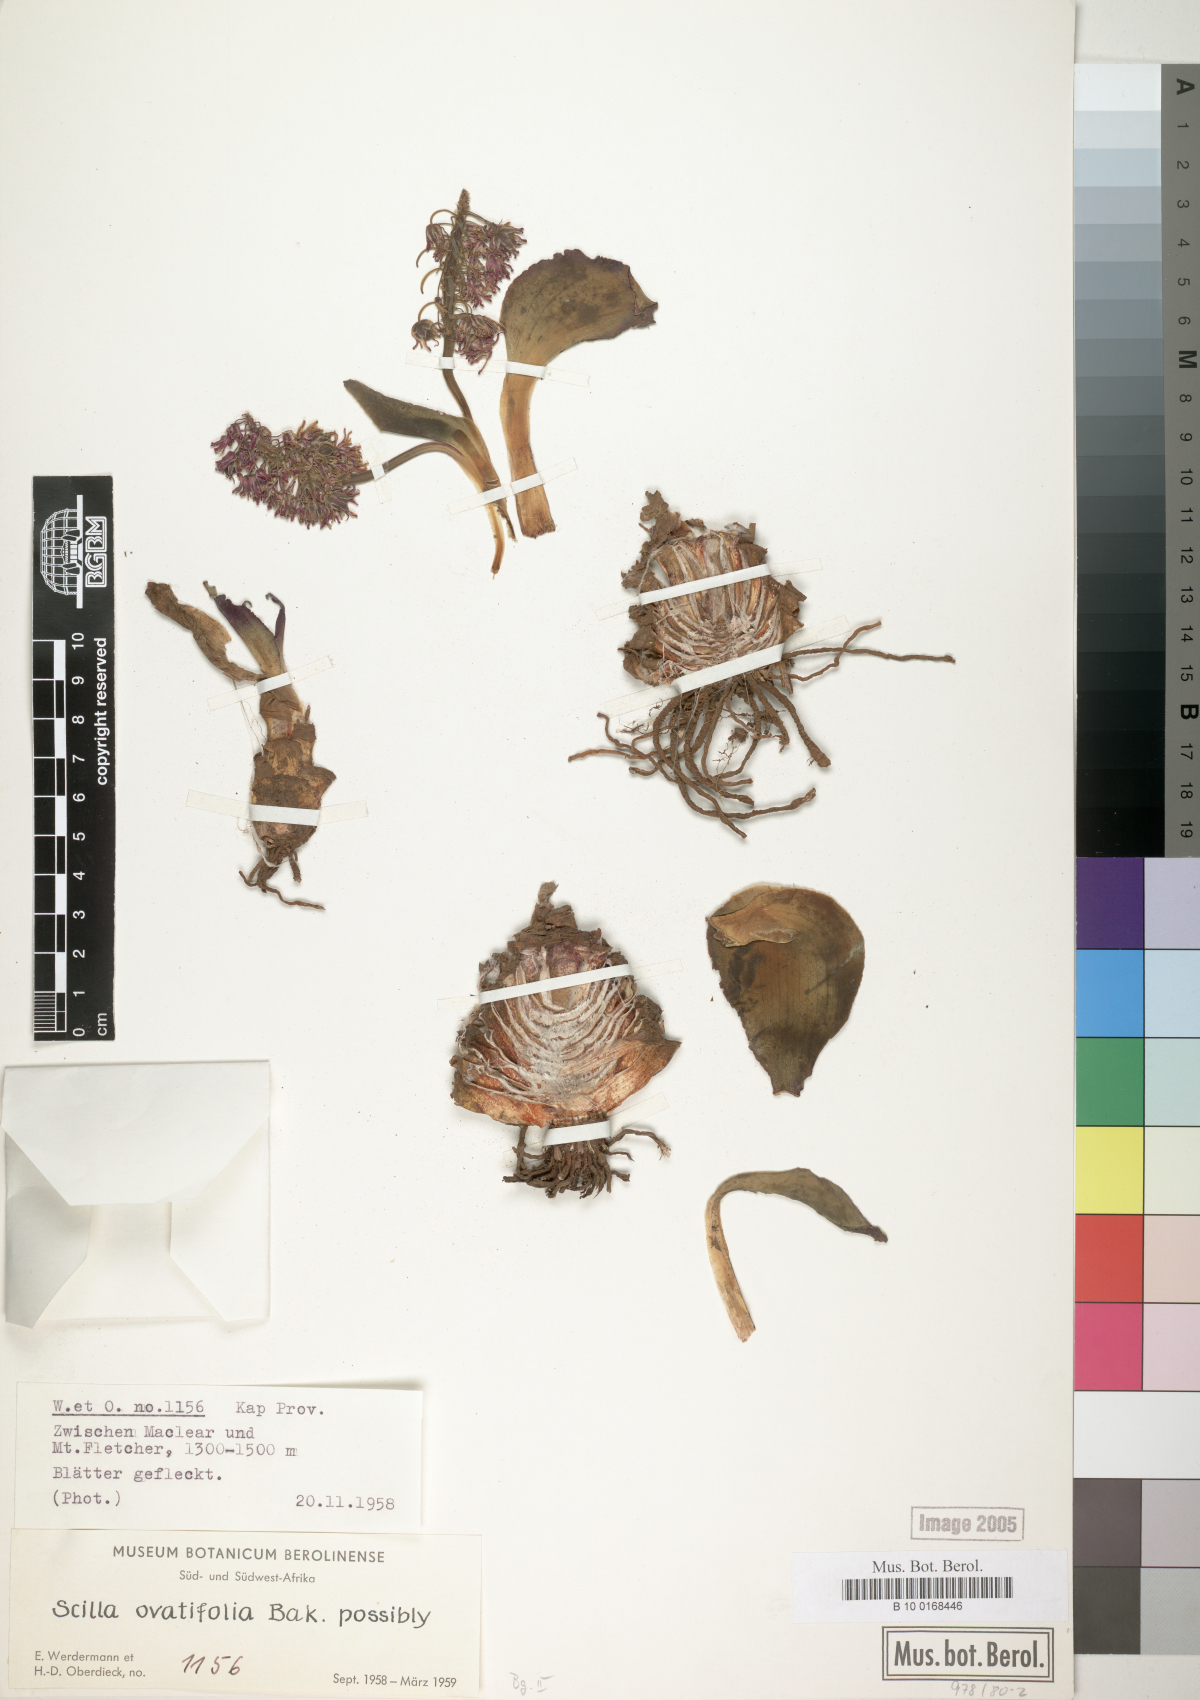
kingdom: Plantae
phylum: Tracheophyta
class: Liliopsida
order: Asparagales
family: Asparagaceae
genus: Ledebouria
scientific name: Ledebouria ovatifolia
